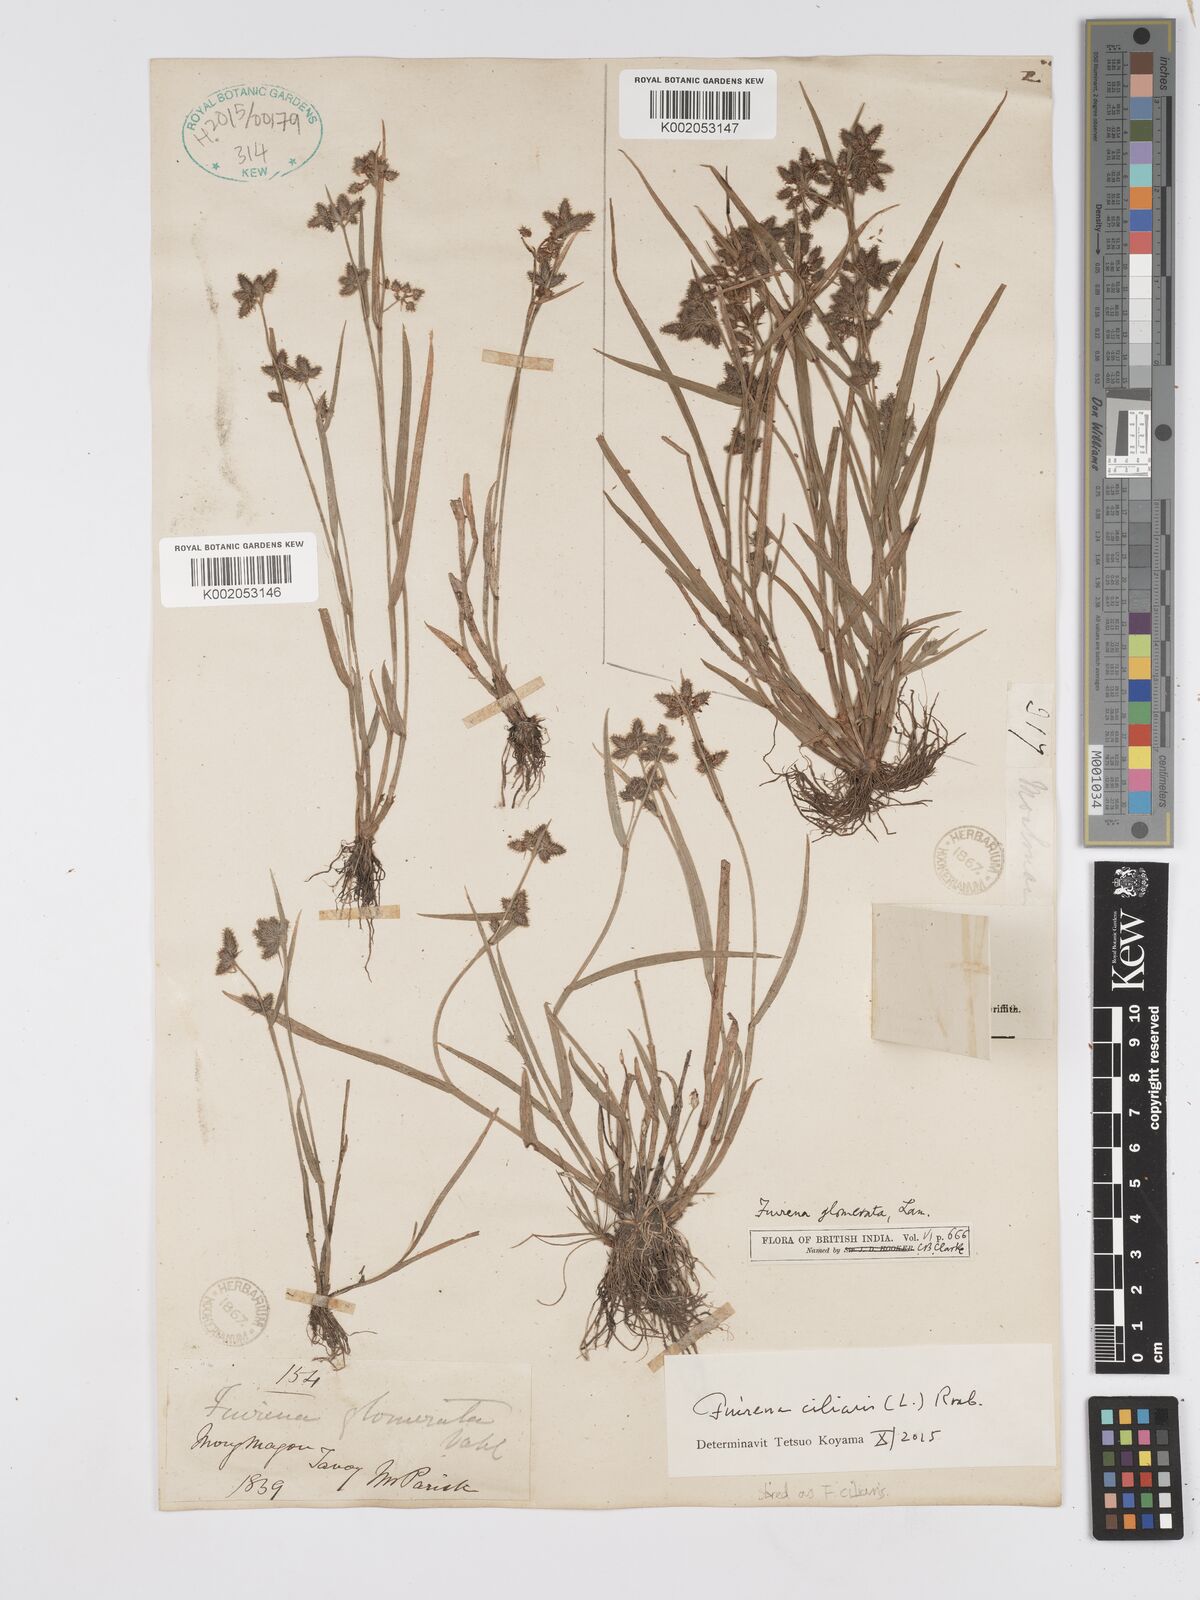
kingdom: Plantae
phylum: Tracheophyta
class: Liliopsida
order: Poales
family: Cyperaceae
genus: Fuirena
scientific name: Fuirena ciliaris
